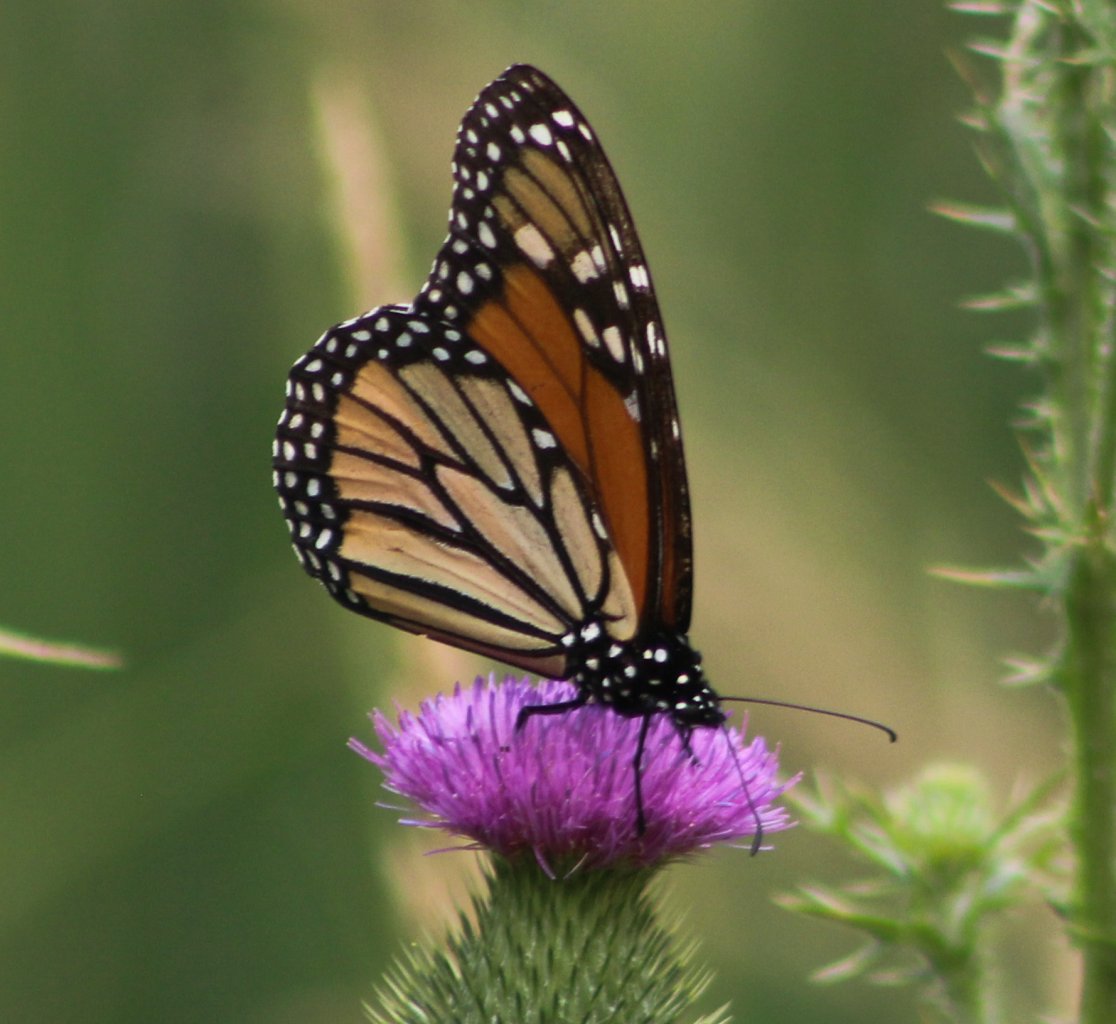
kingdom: Animalia
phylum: Arthropoda
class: Insecta
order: Lepidoptera
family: Nymphalidae
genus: Danaus
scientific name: Danaus plexippus
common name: Monarch
